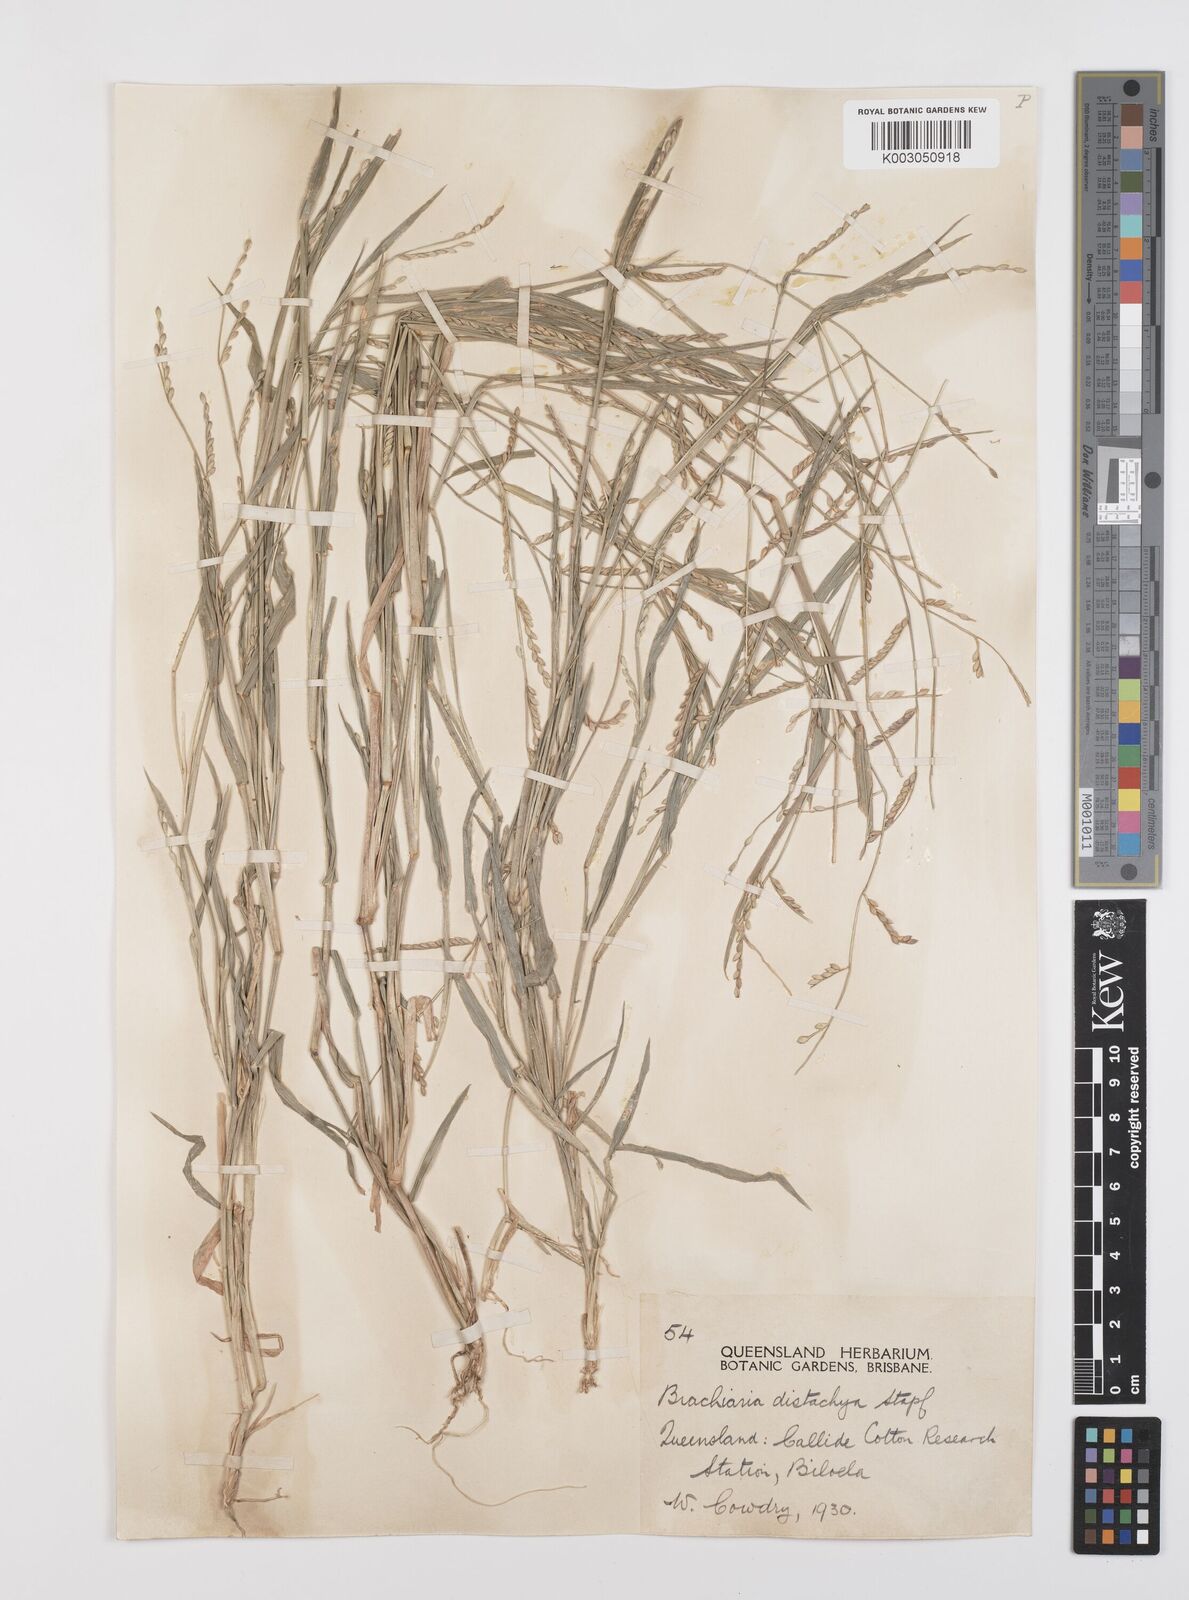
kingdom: Plantae
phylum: Tracheophyta
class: Liliopsida
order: Poales
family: Poaceae
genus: Urochloa
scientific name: Urochloa subquadripara
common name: Armgrass millet
